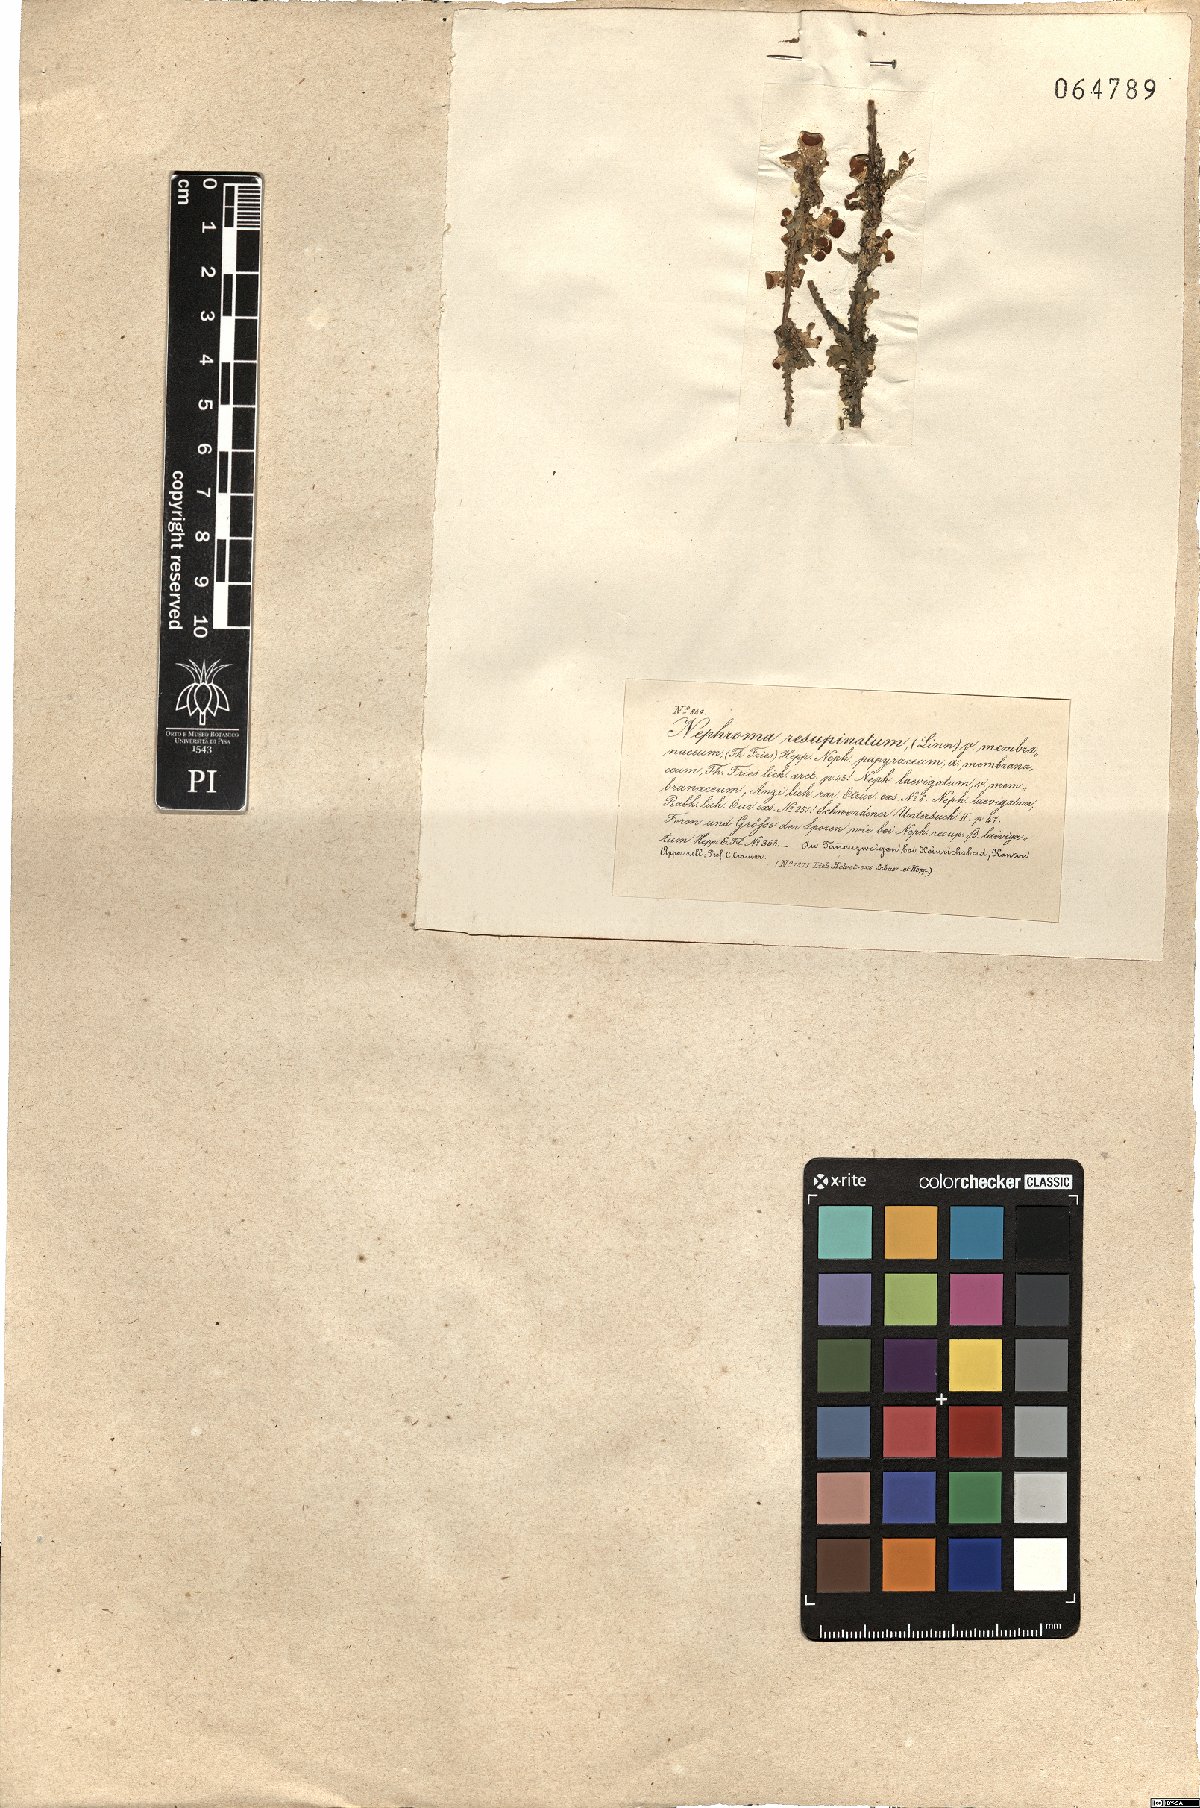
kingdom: Fungi
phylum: Ascomycota
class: Lecanoromycetes
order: Peltigerales
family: Nephromataceae
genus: Nephroma
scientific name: Nephroma resupinatum
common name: Pimpled kidney lichen
